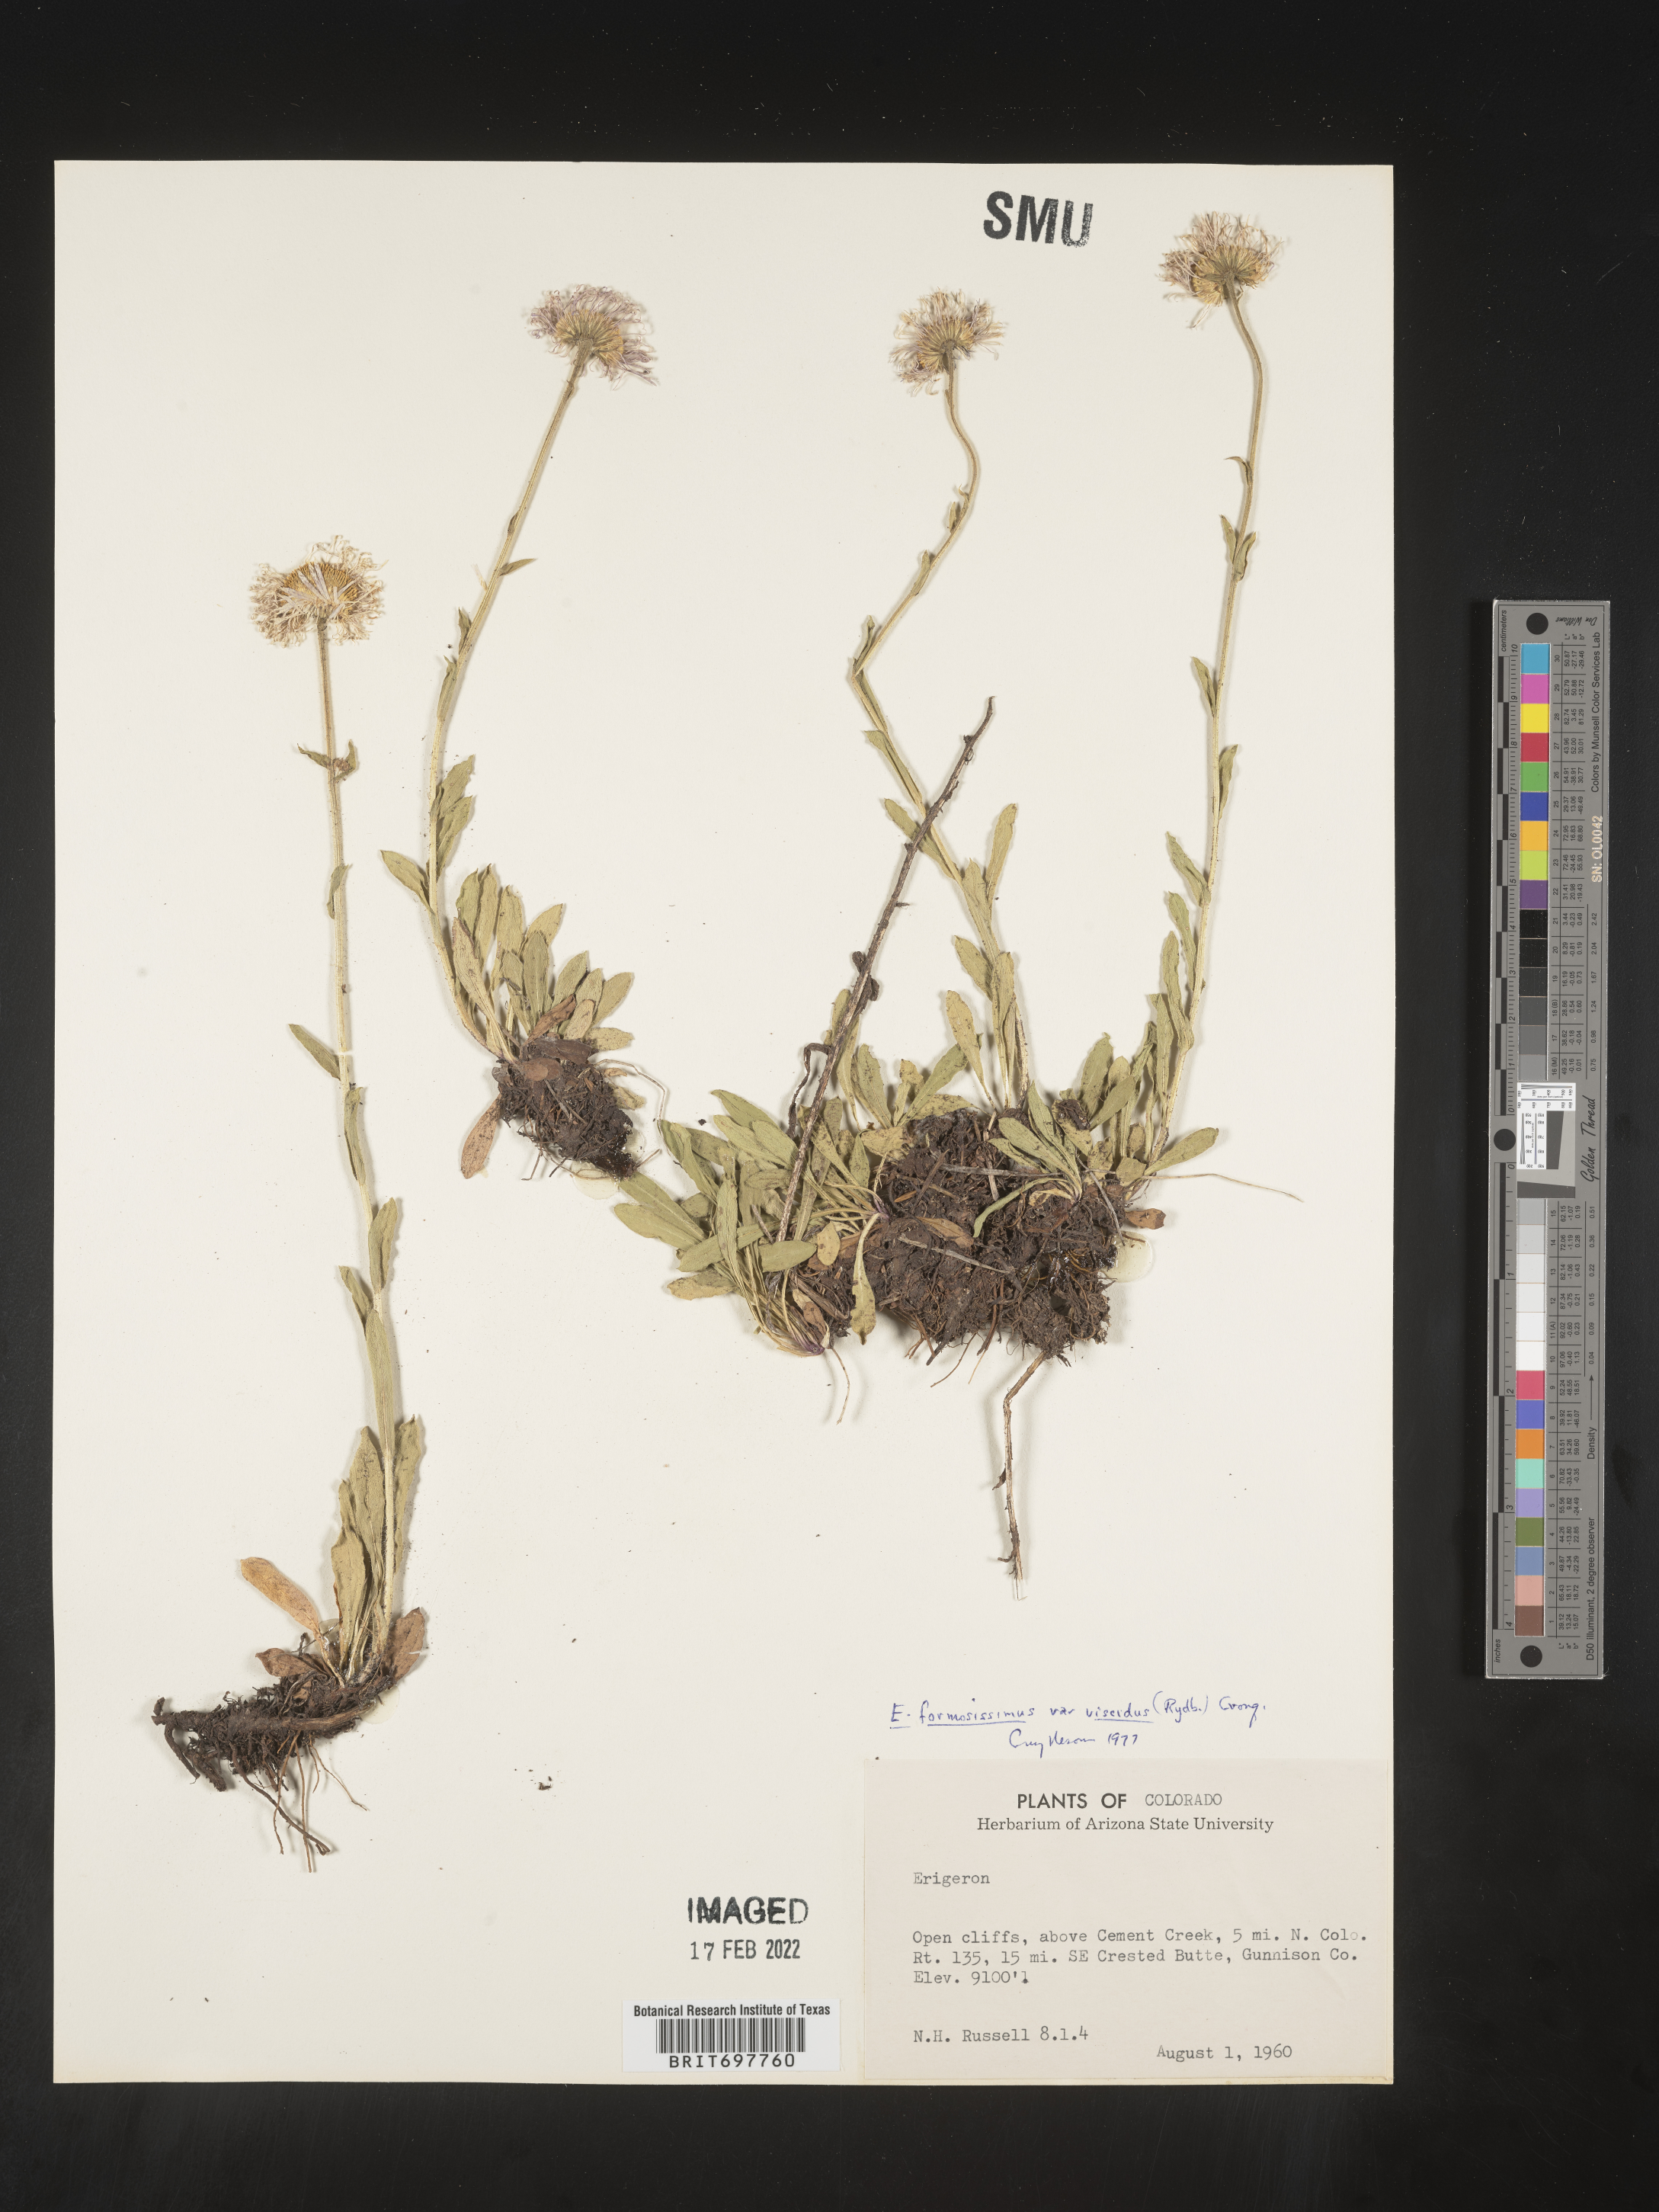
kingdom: Plantae
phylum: Tracheophyta
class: Magnoliopsida
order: Asterales
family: Asteraceae
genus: Erigeron
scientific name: Erigeron formosissimus
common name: Beautiful fleabane
